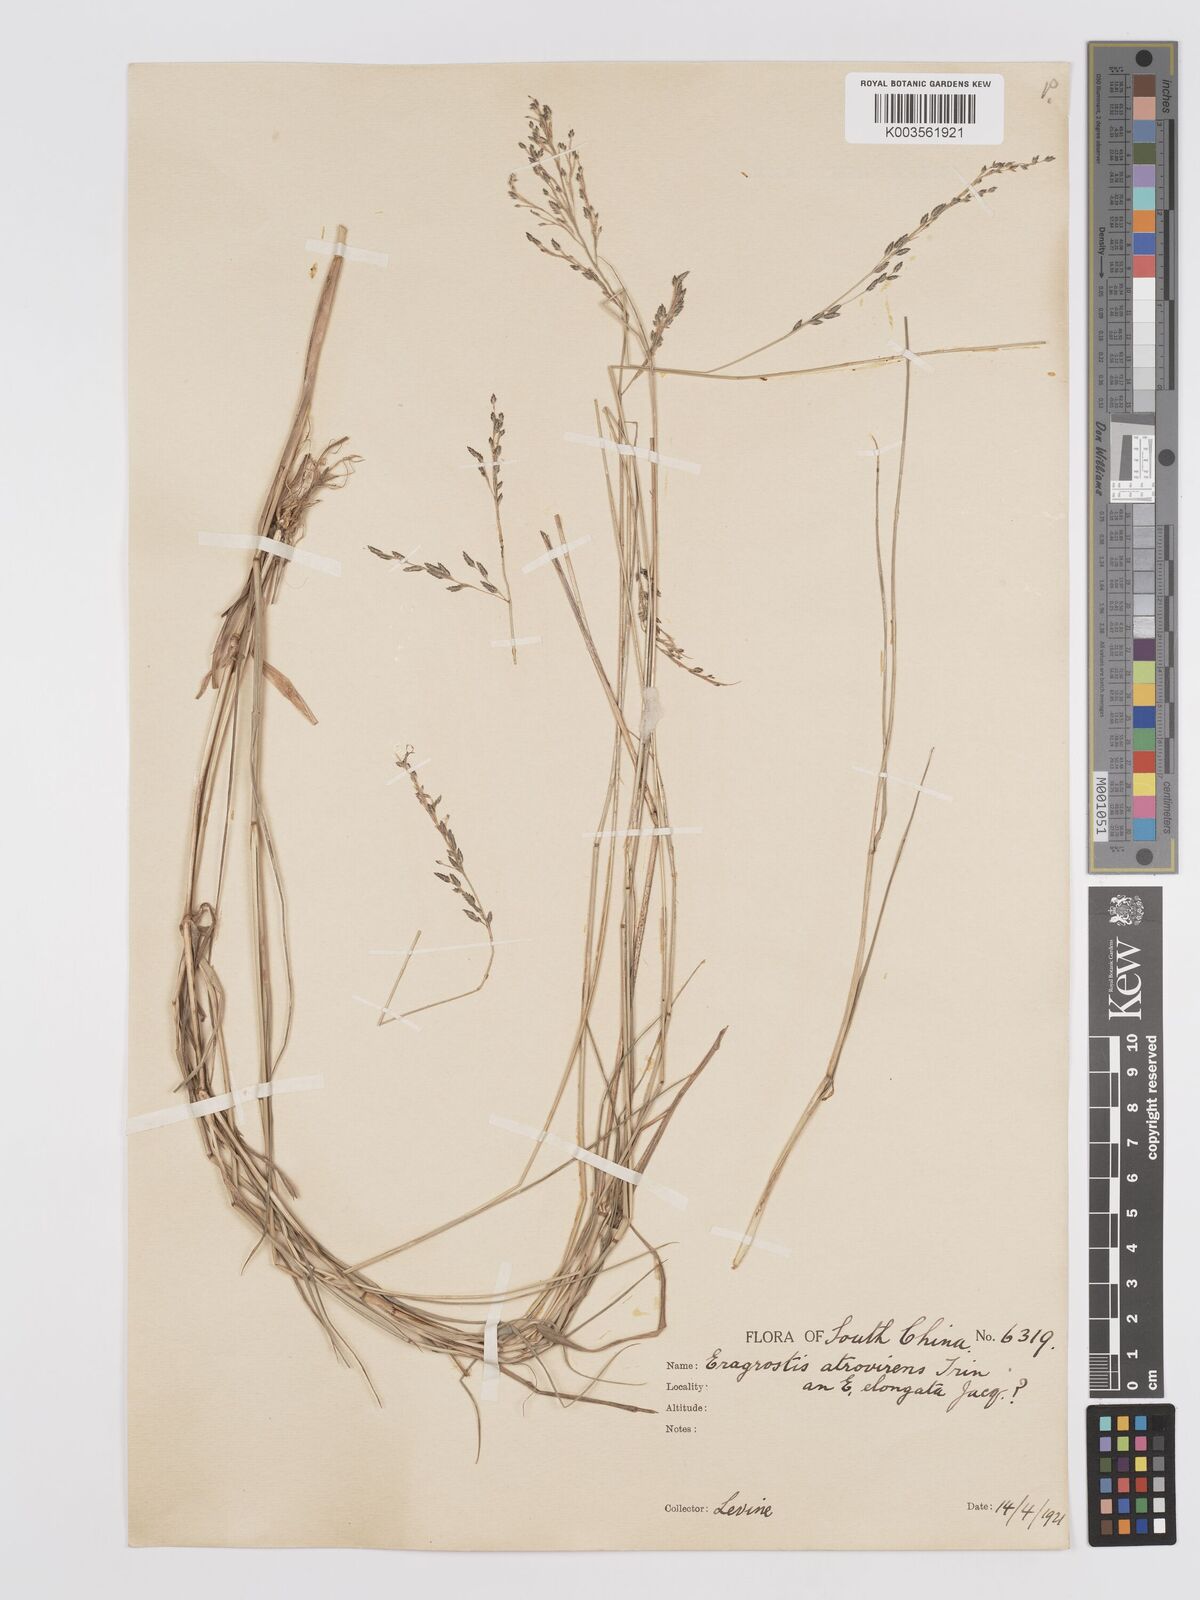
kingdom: Plantae
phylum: Tracheophyta
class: Liliopsida
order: Poales
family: Poaceae
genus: Eragrostis
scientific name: Eragrostis atrovirens
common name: Thalia lovegrass
